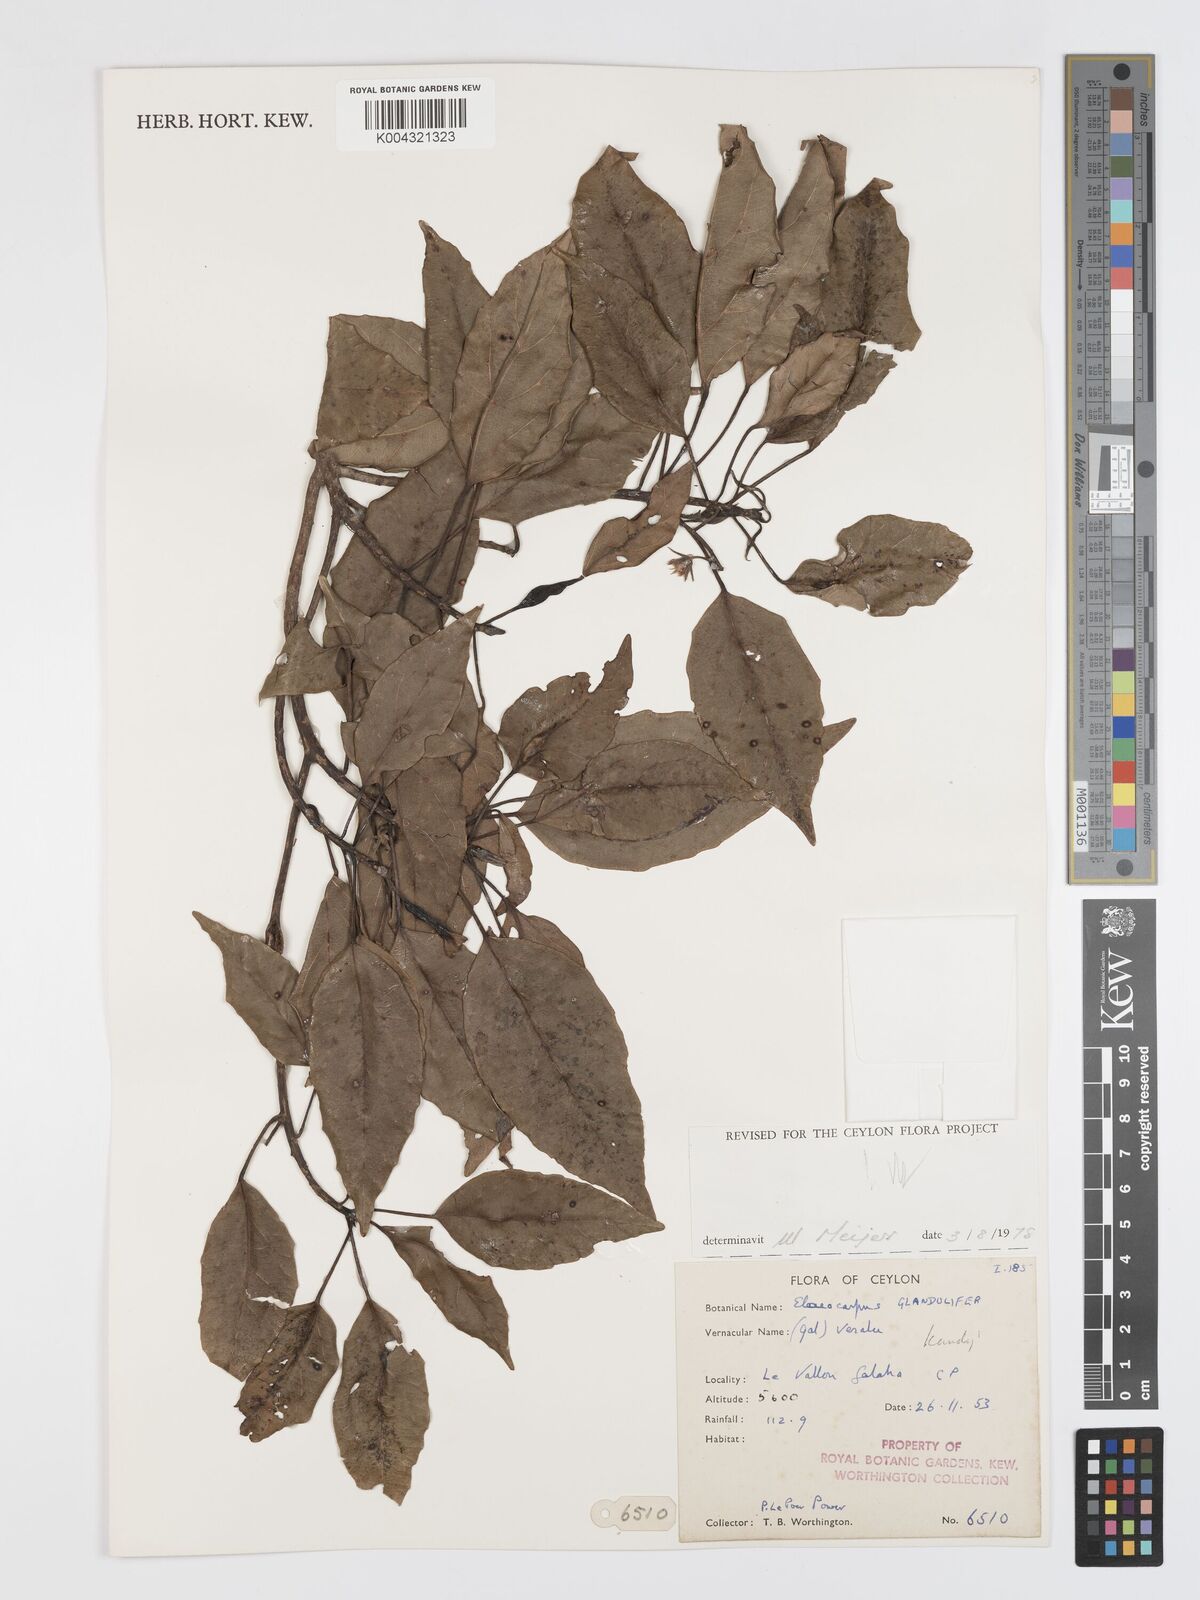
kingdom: Plantae
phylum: Tracheophyta
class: Magnoliopsida
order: Oxalidales
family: Elaeocarpaceae
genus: Elaeocarpus
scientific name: Elaeocarpus glandulifer
